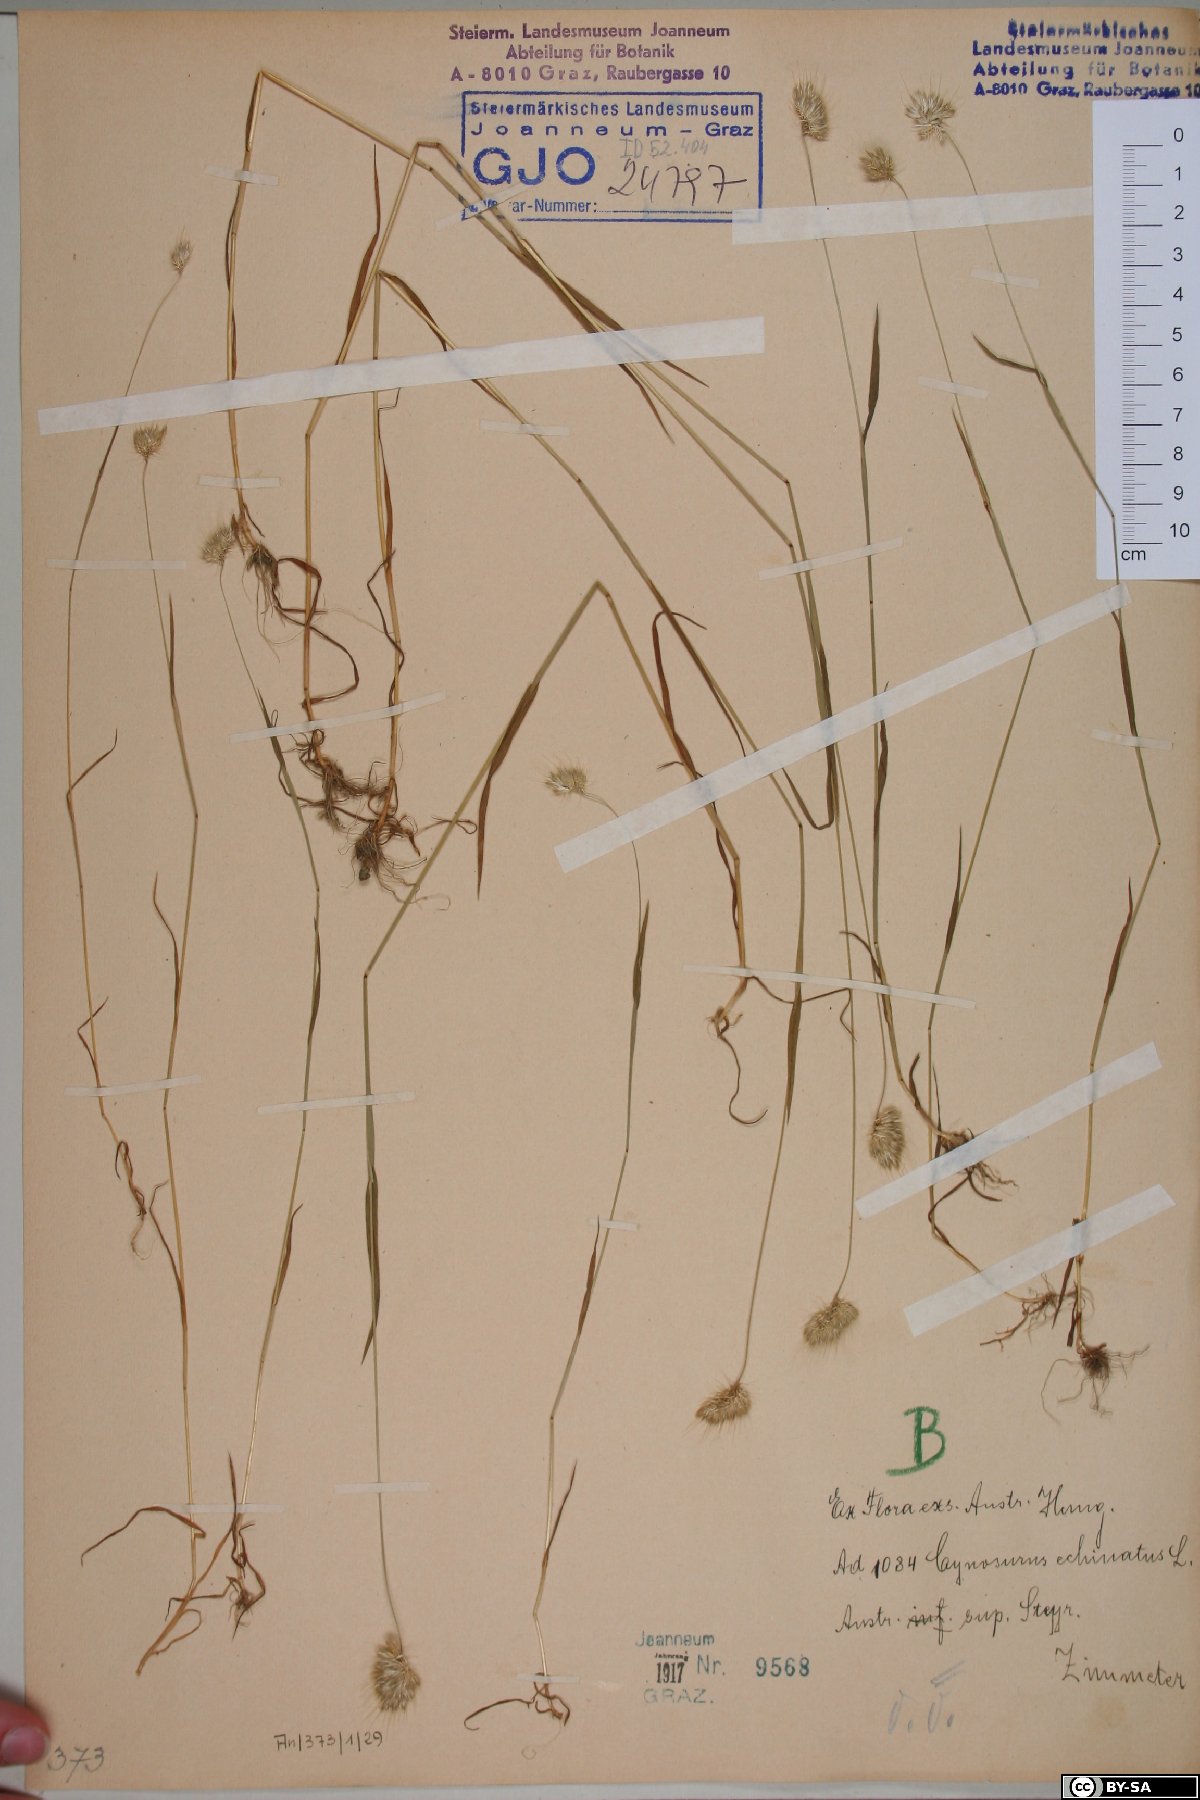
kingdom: Plantae
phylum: Tracheophyta
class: Liliopsida
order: Poales
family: Poaceae
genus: Cynosurus
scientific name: Cynosurus echinatus
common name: Rough dog's-tail
